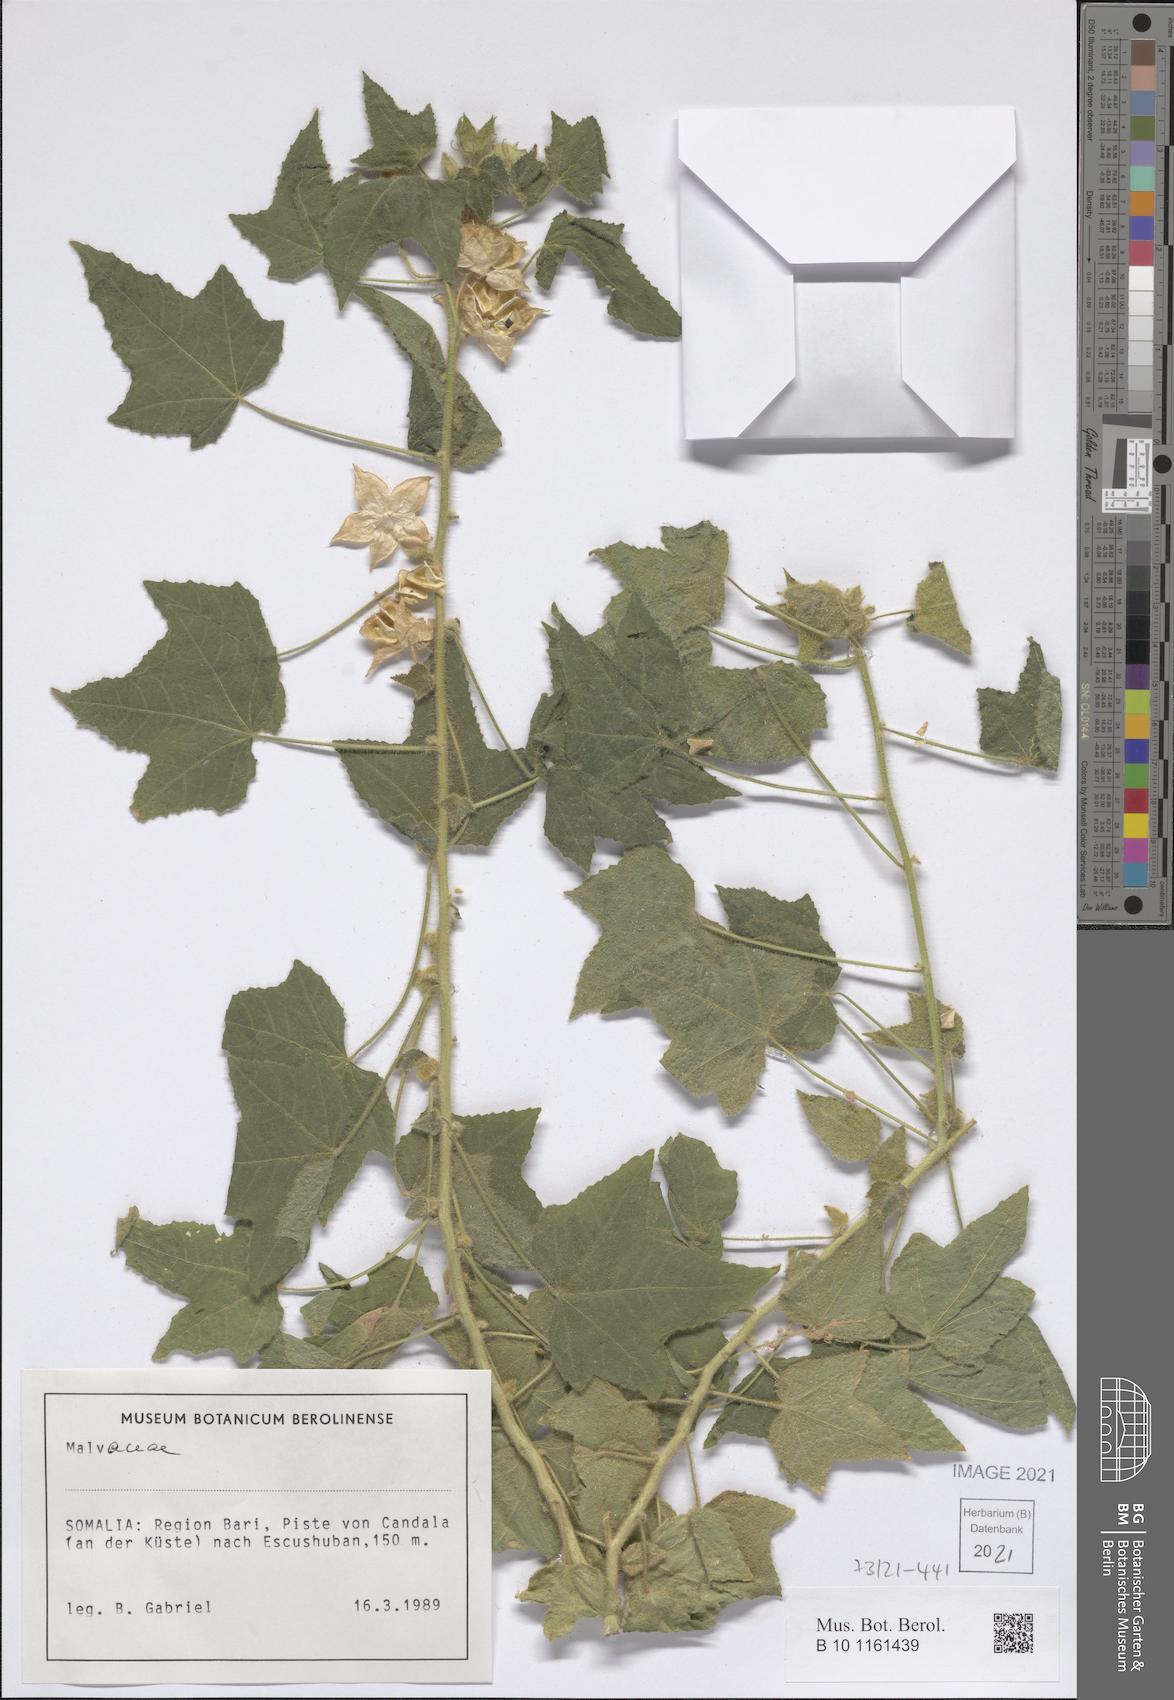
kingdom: Plantae
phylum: Tracheophyta
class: Magnoliopsida
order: Malvales
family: Malvaceae
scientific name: Malvaceae
